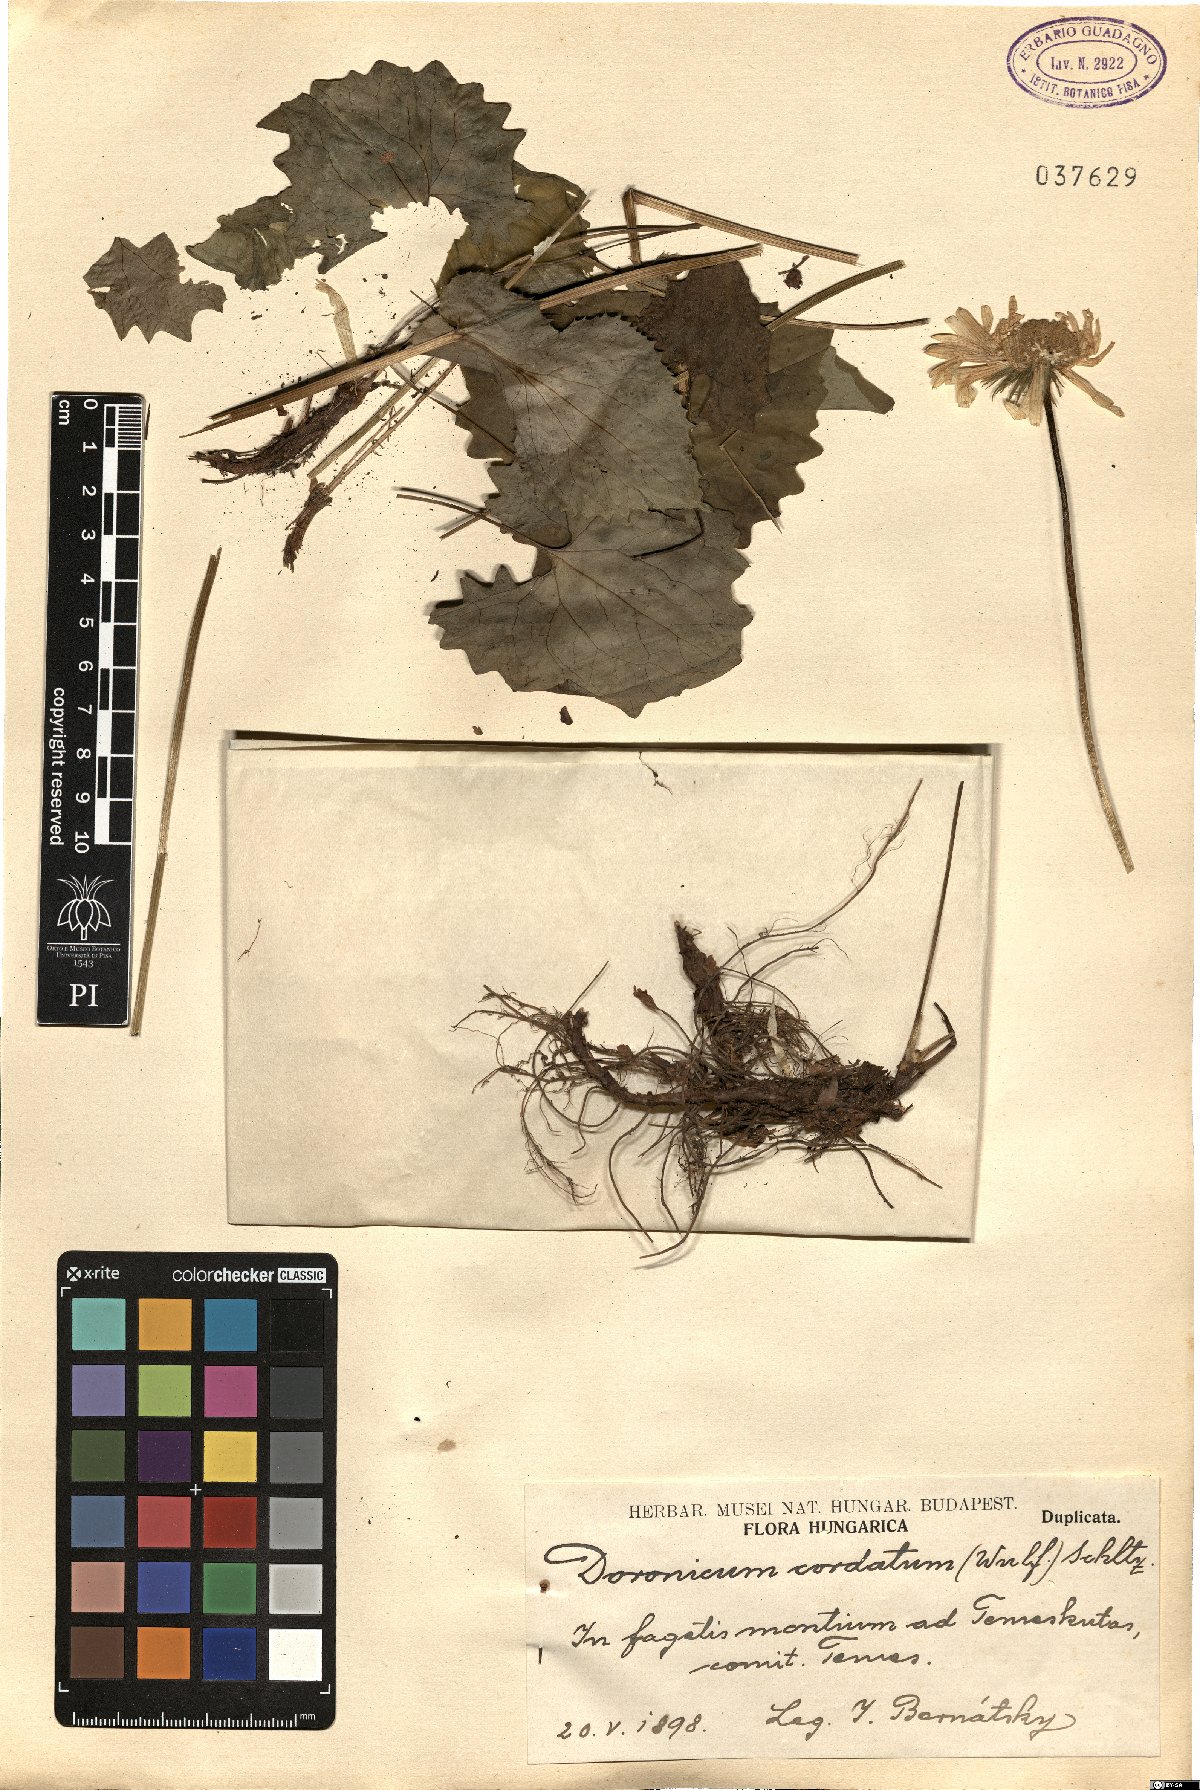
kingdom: Plantae
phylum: Tracheophyta
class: Magnoliopsida
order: Asterales
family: Asteraceae
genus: Doronicum
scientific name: Doronicum columnae
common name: Eastern leopard's-bane
